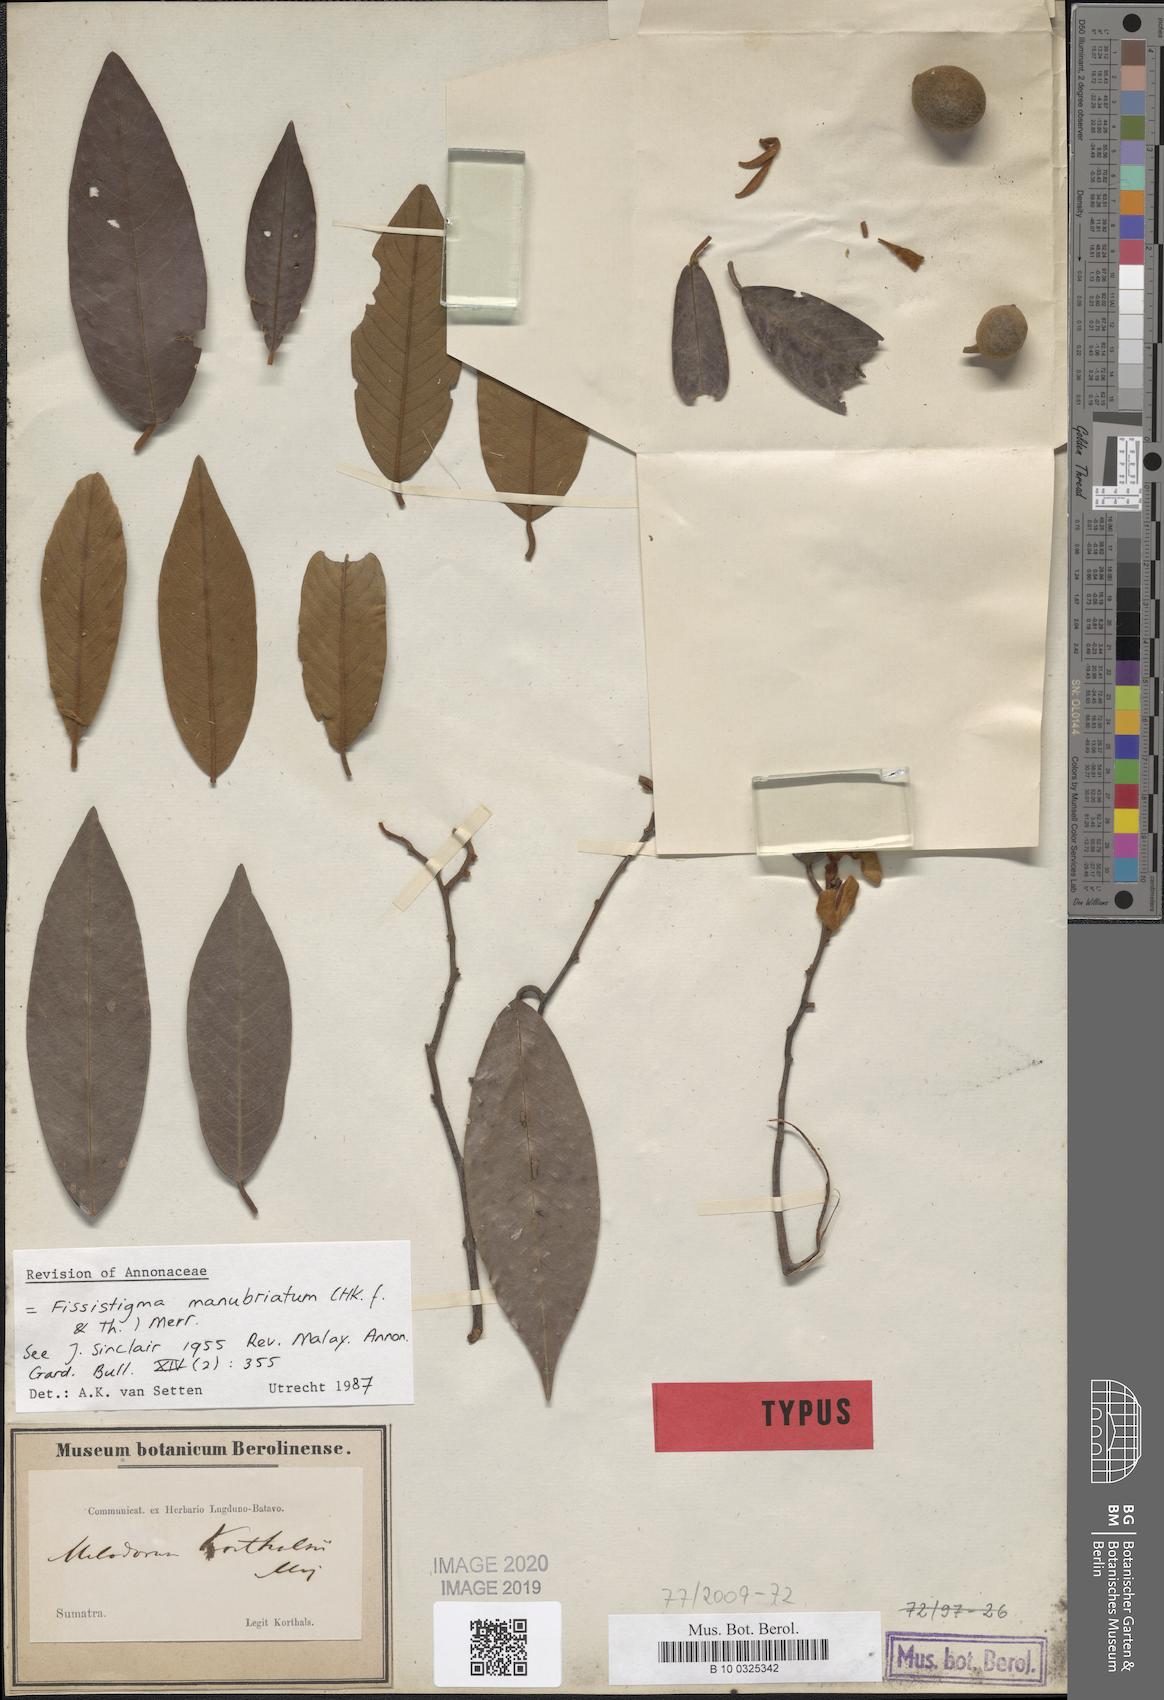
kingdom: Plantae
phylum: Tracheophyta
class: Magnoliopsida
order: Magnoliales
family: Annonaceae
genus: Fissistigma
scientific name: Fissistigma manubriatum
